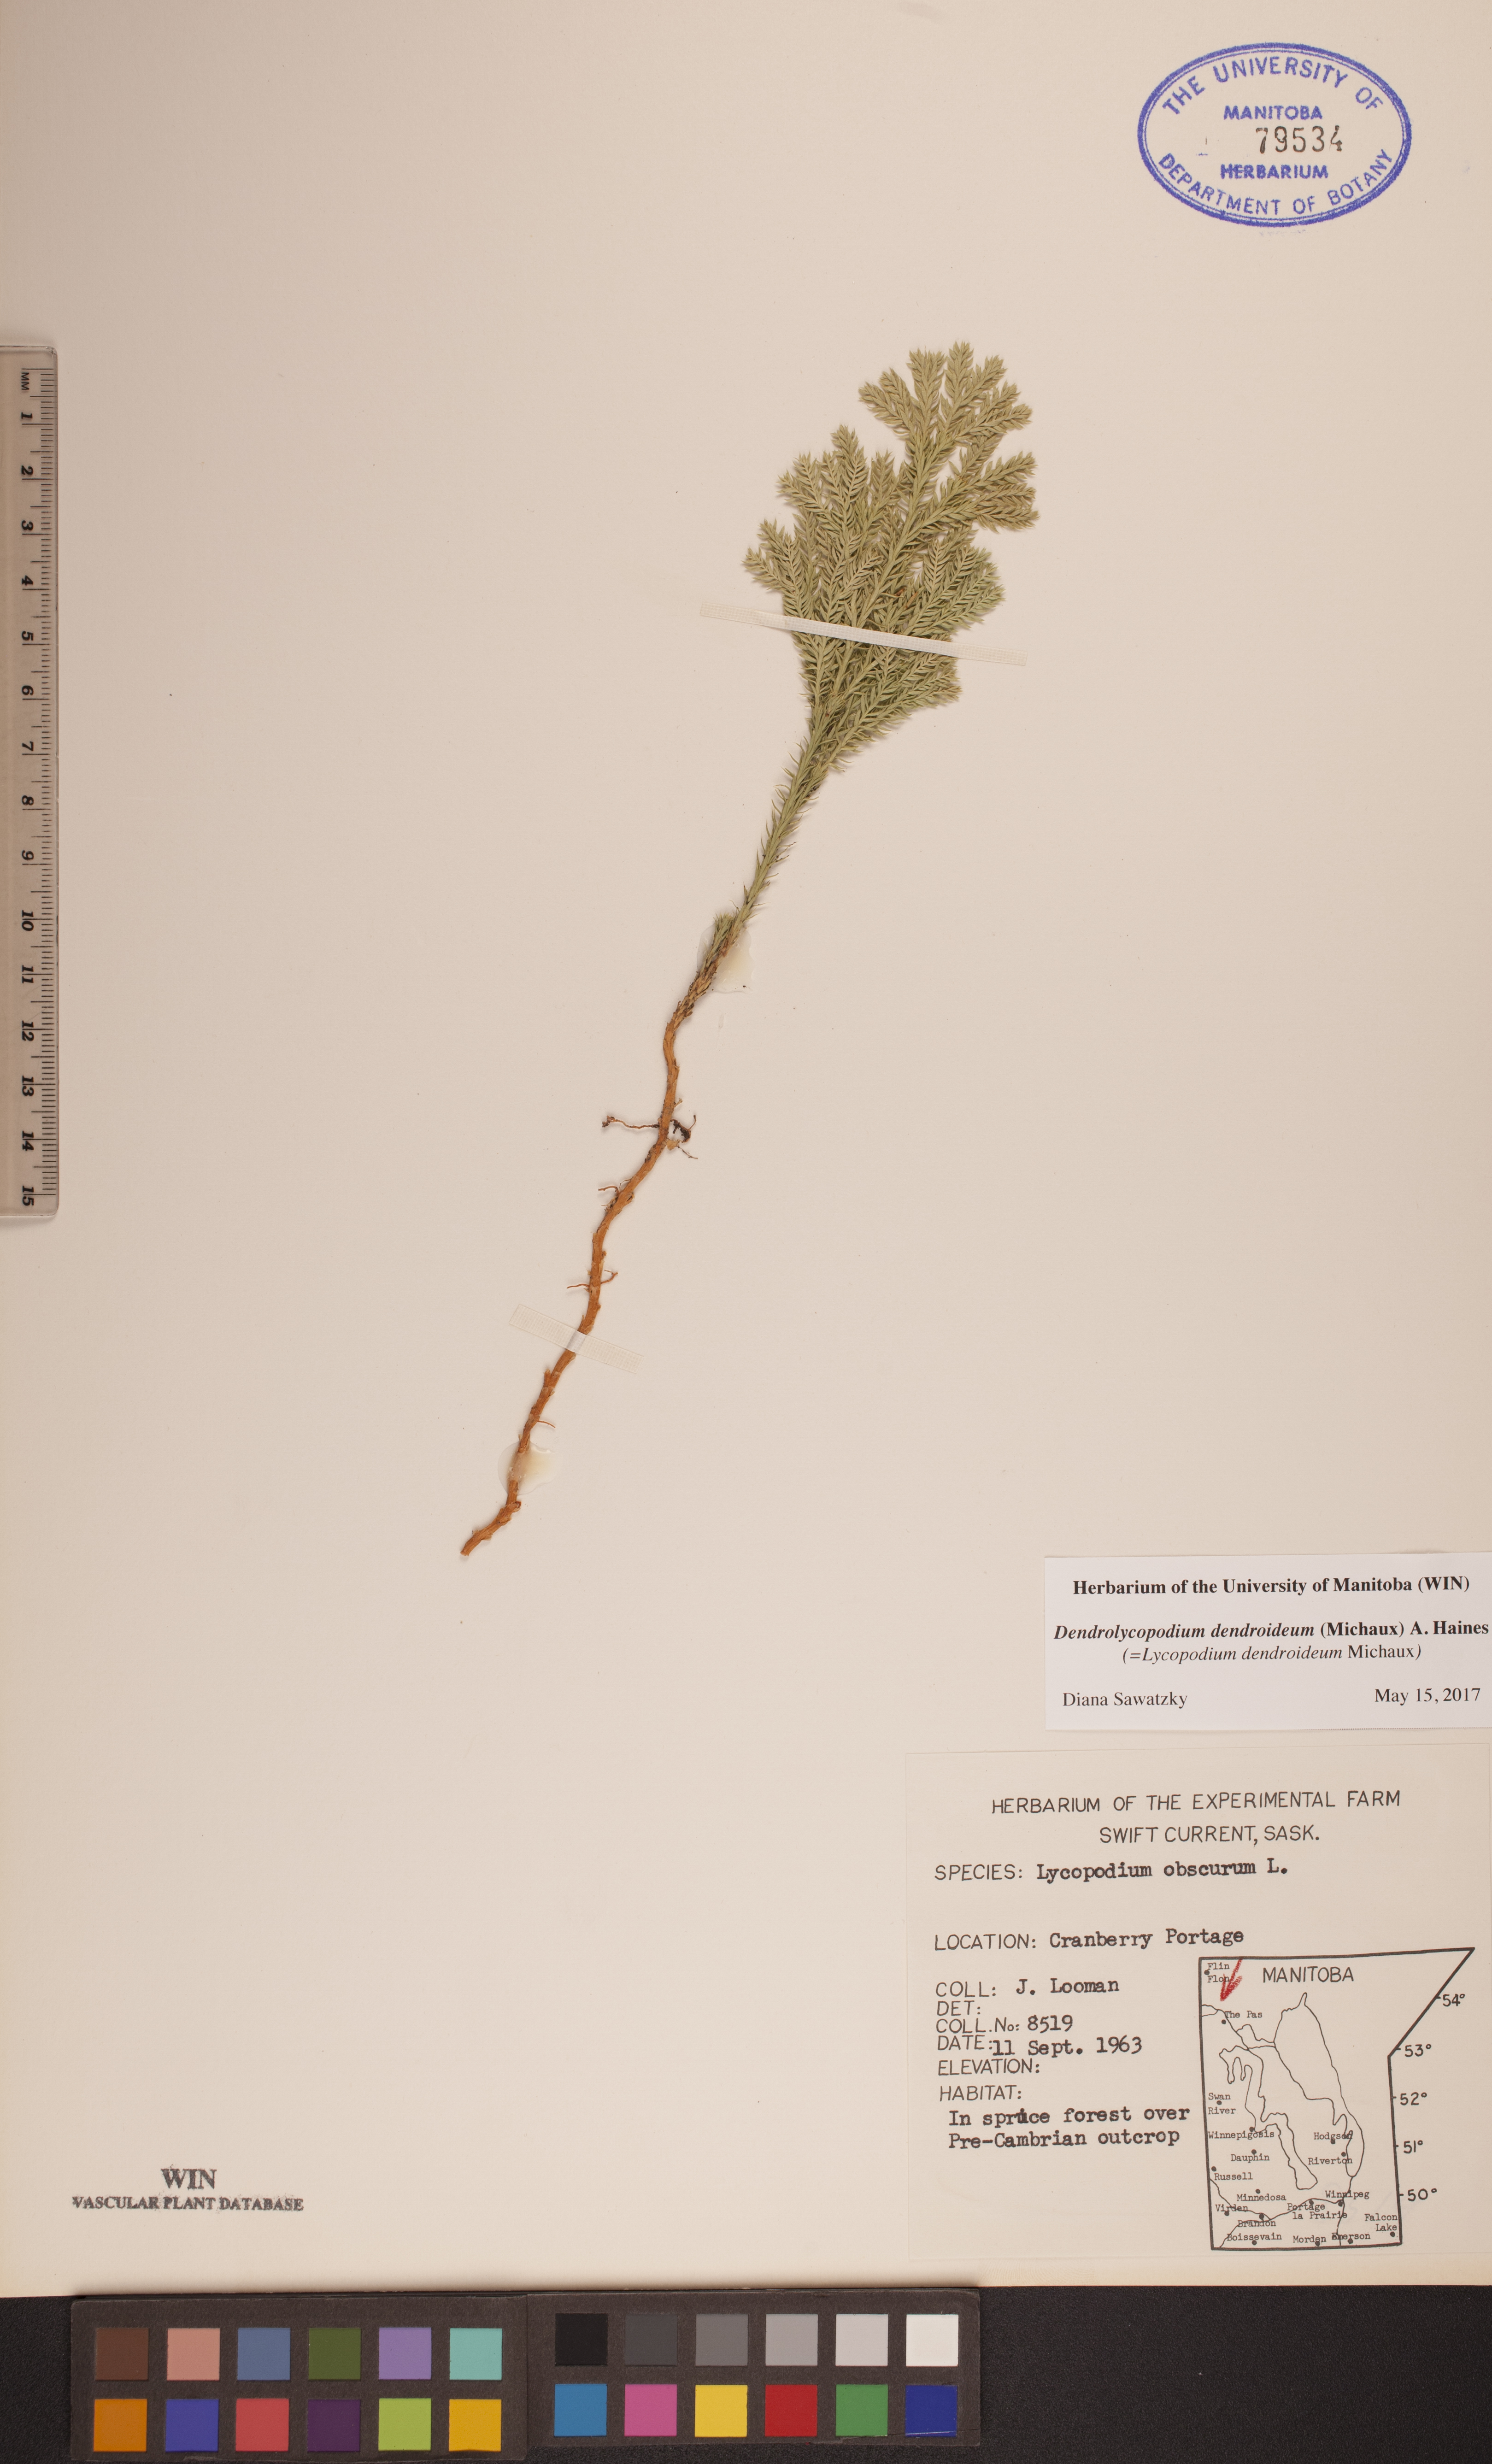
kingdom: Plantae
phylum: Tracheophyta
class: Lycopodiopsida
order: Lycopodiales
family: Lycopodiaceae
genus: Dendrolycopodium
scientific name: Dendrolycopodium dendroideum
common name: Northern tree-clubmoss
